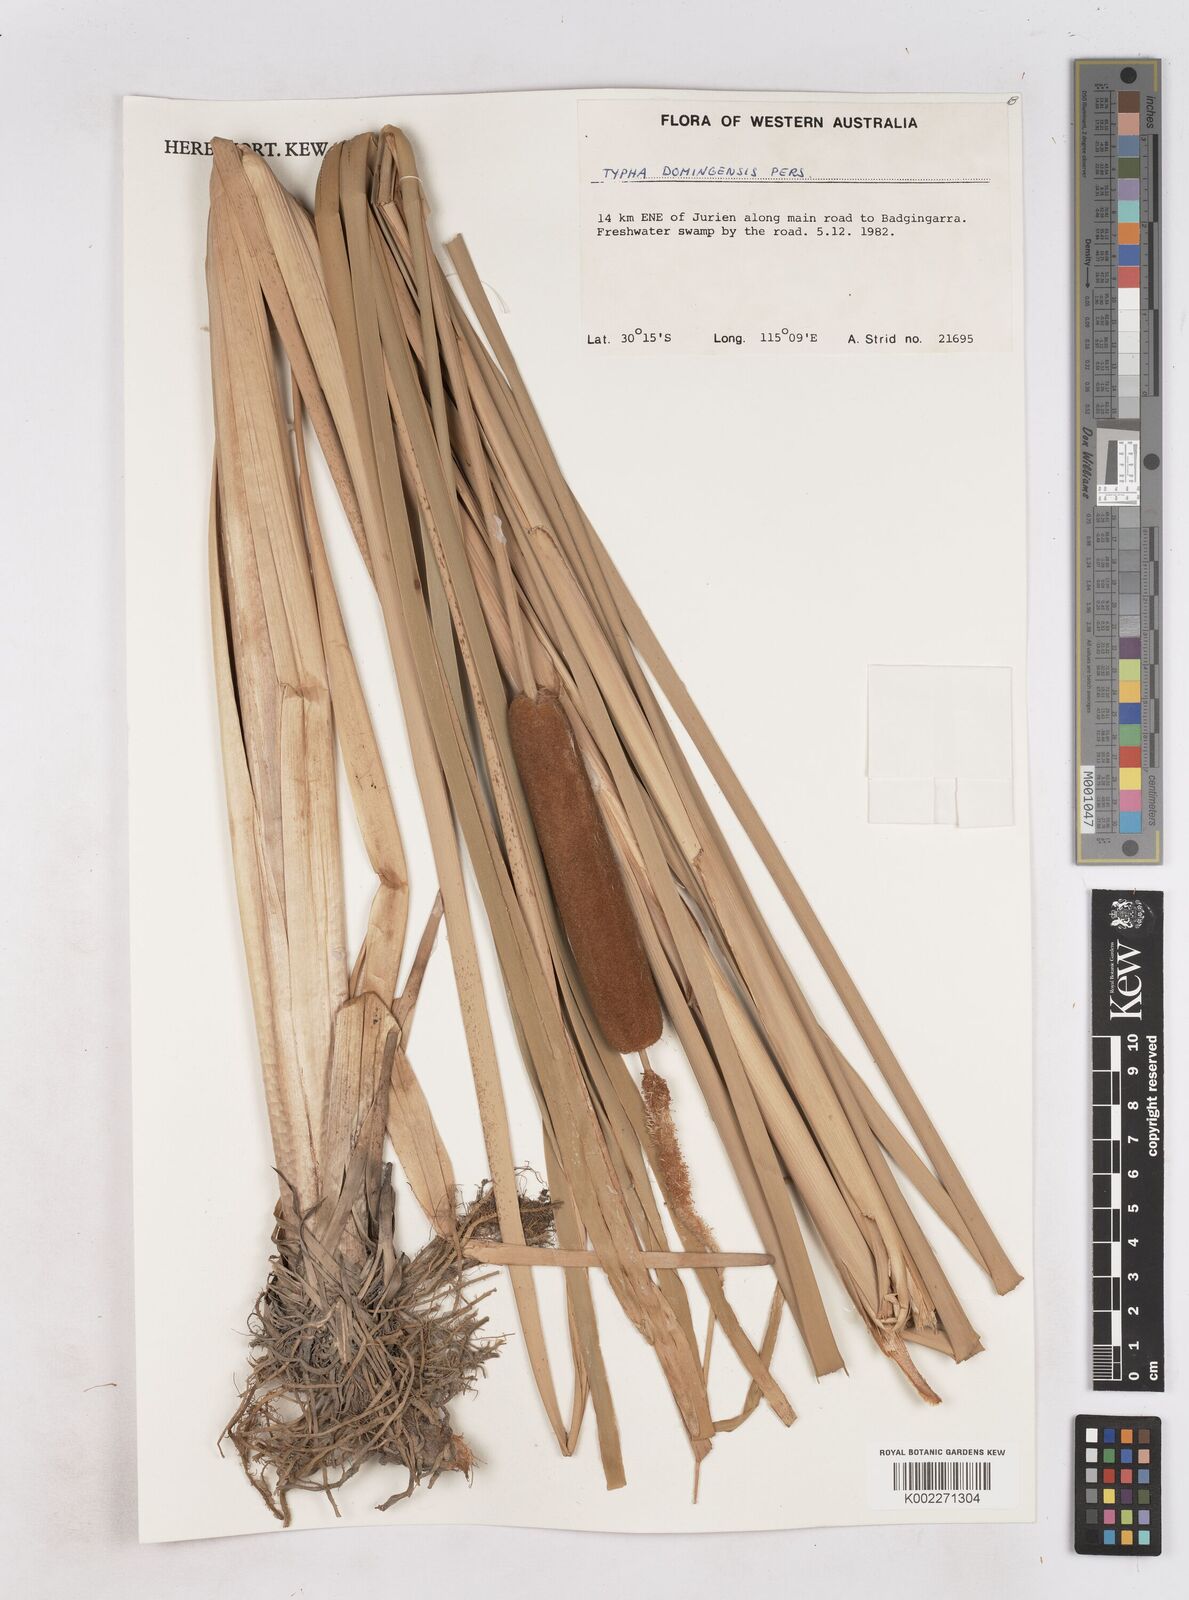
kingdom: Plantae
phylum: Tracheophyta
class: Liliopsida
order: Poales
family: Typhaceae
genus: Typha
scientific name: Typha domingensis
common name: Southern cattail
